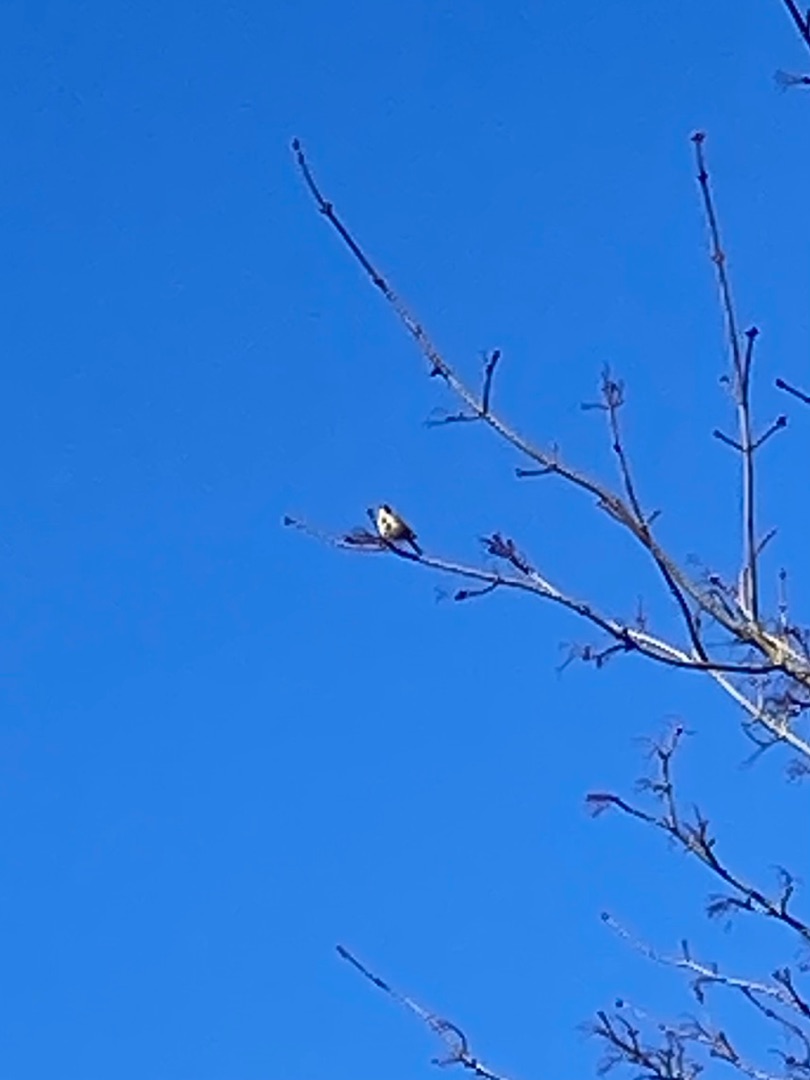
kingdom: Animalia
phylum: Chordata
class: Aves
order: Passeriformes
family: Phylloscopidae
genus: Phylloscopus
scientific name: Phylloscopus collybita
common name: Gransanger
